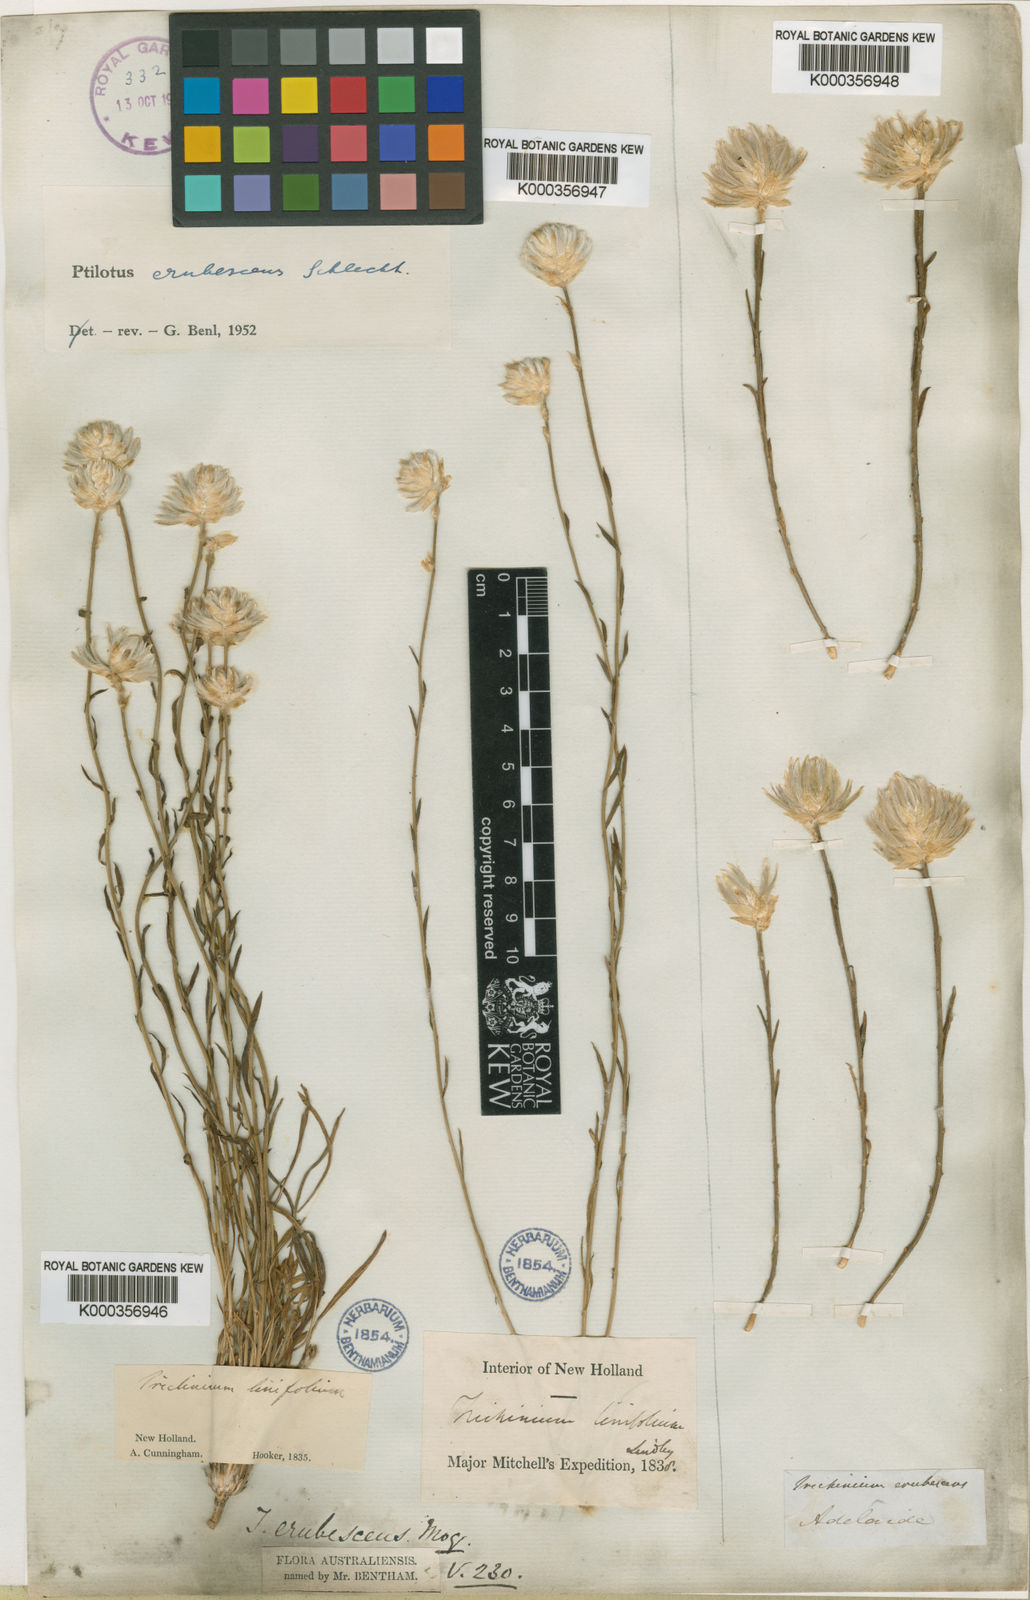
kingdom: Plantae
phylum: Tracheophyta
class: Magnoliopsida
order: Caryophyllales
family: Amaranthaceae
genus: Ptilotus
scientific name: Ptilotus erubescens
